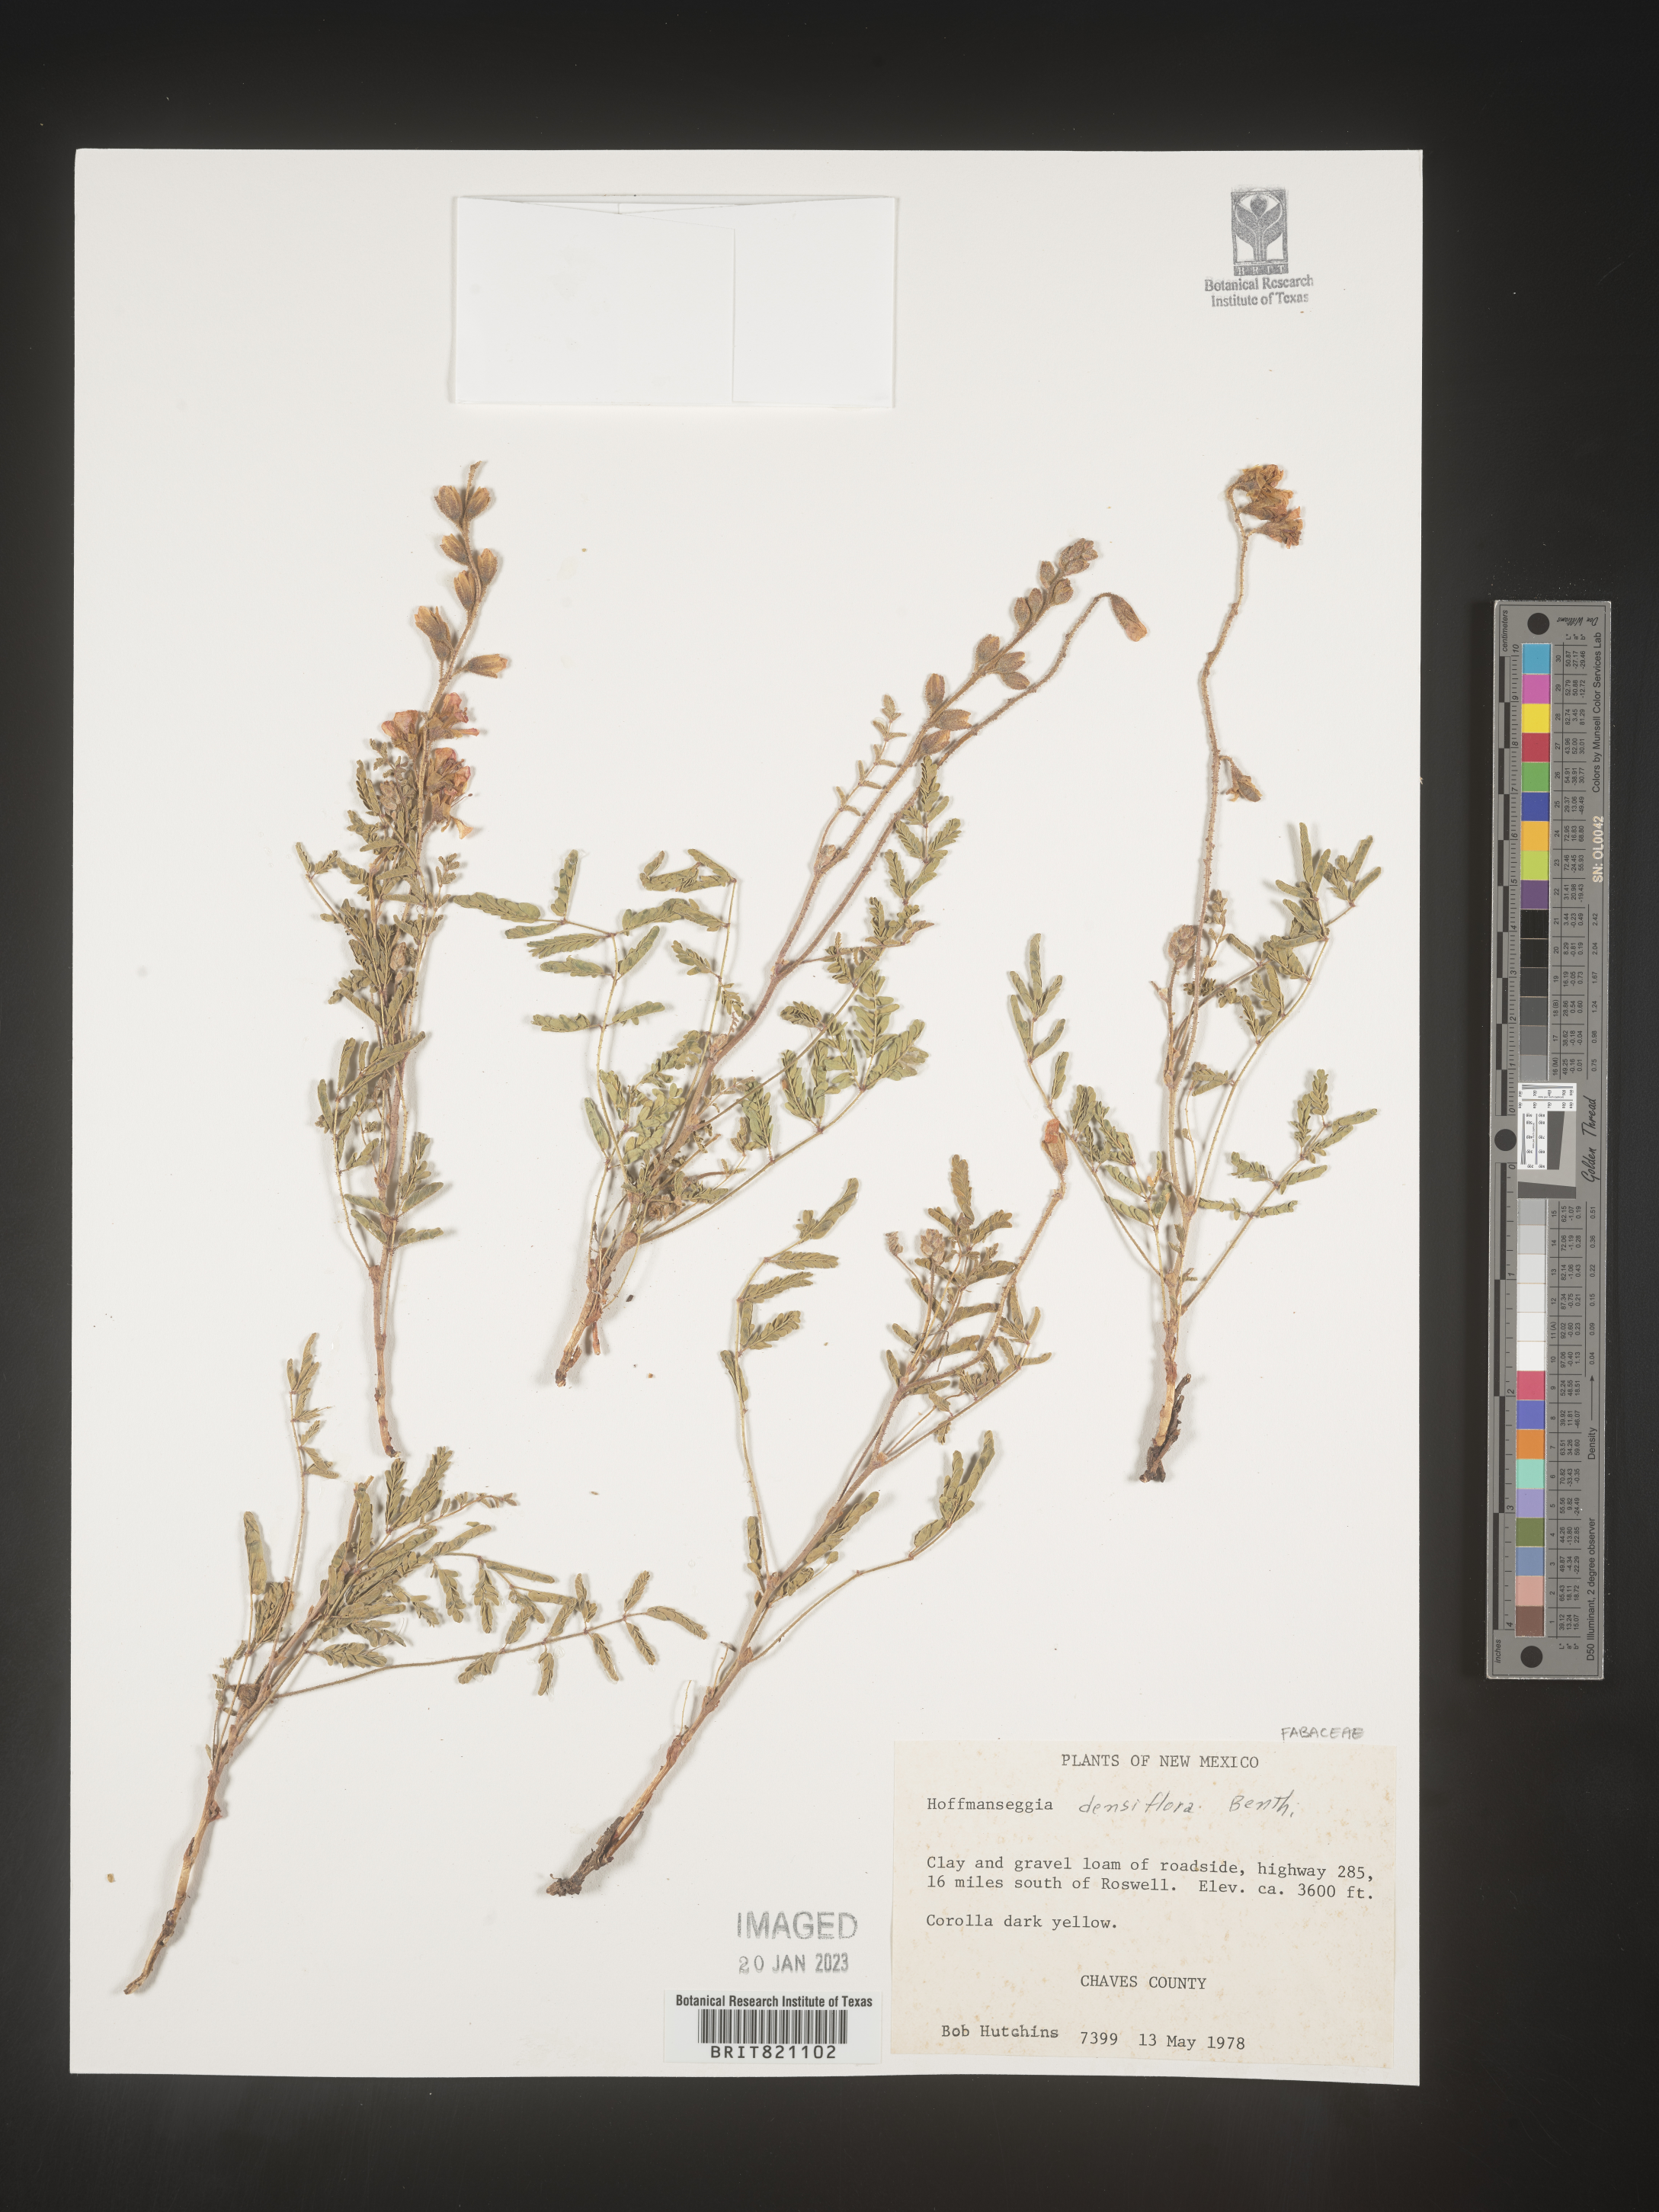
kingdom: Plantae
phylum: Tracheophyta
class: Magnoliopsida
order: Fabales
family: Fabaceae
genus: Hoffmannseggia
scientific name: Hoffmannseggia
